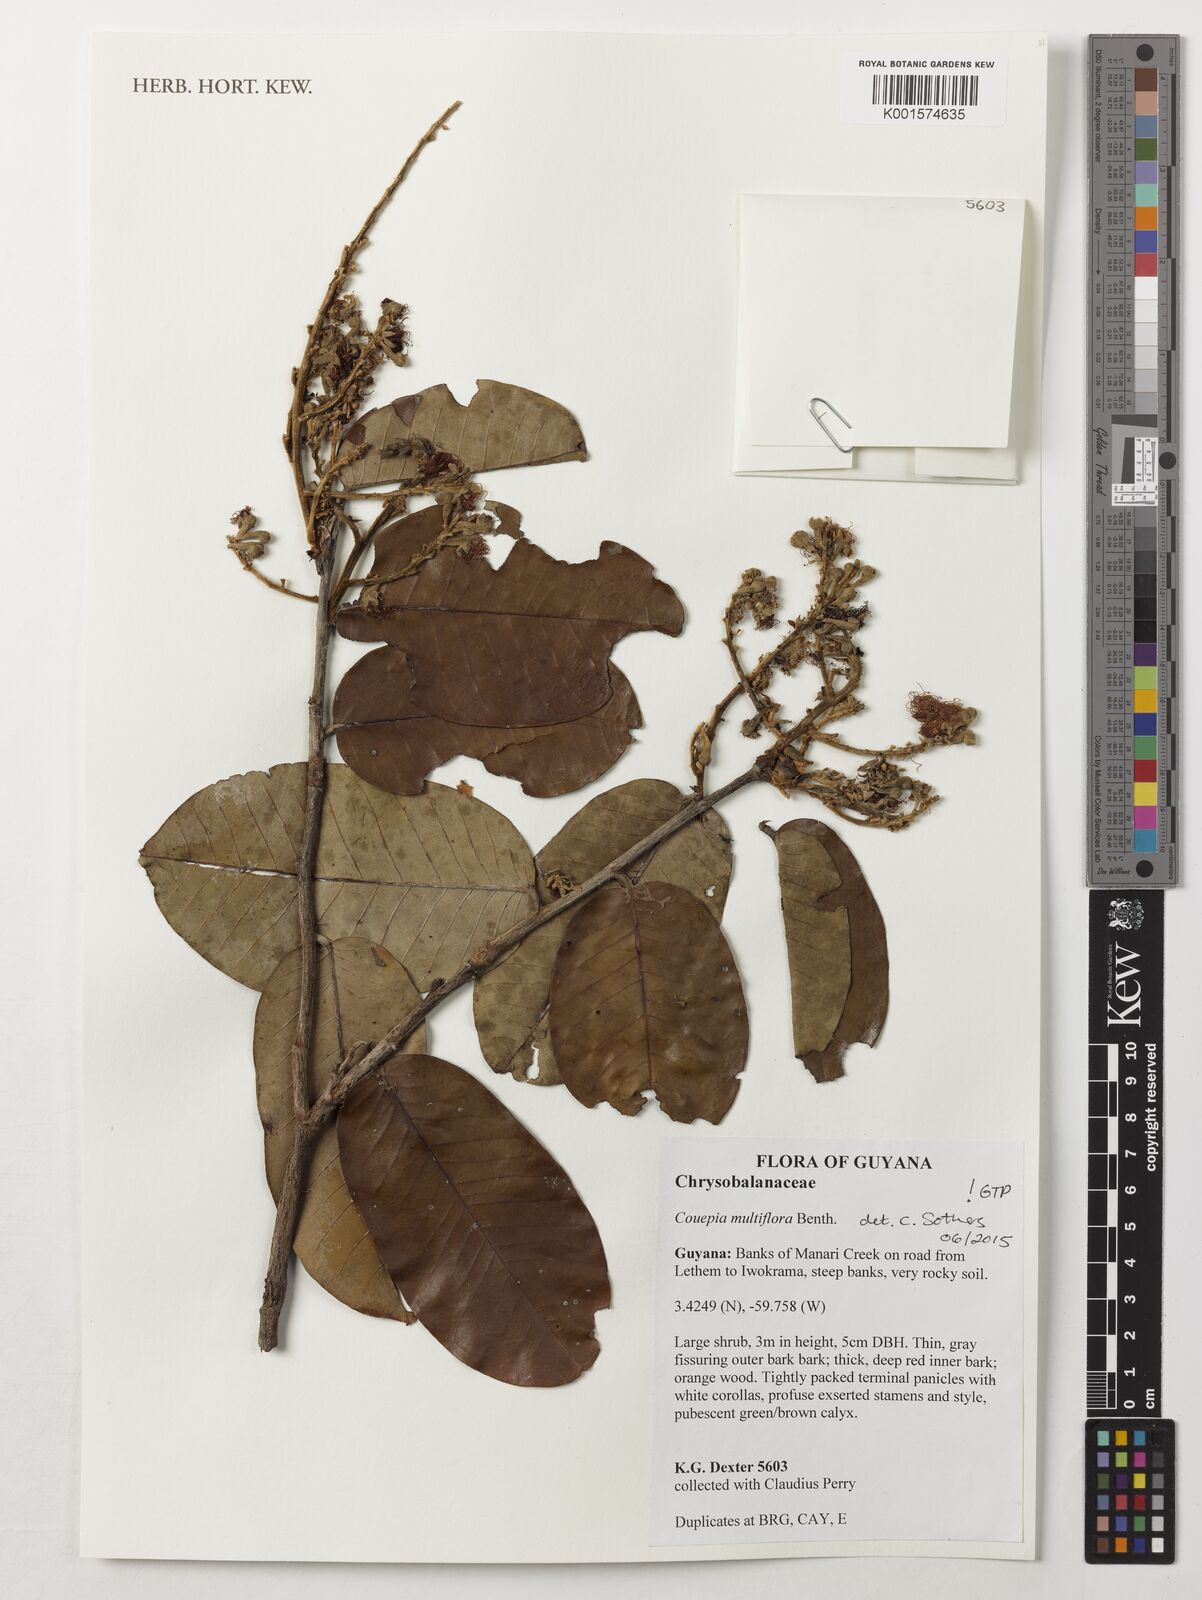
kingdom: Plantae
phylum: Tracheophyta
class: Magnoliopsida
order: Malpighiales
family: Chrysobalanaceae
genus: Couepia
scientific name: Couepia multiflora
